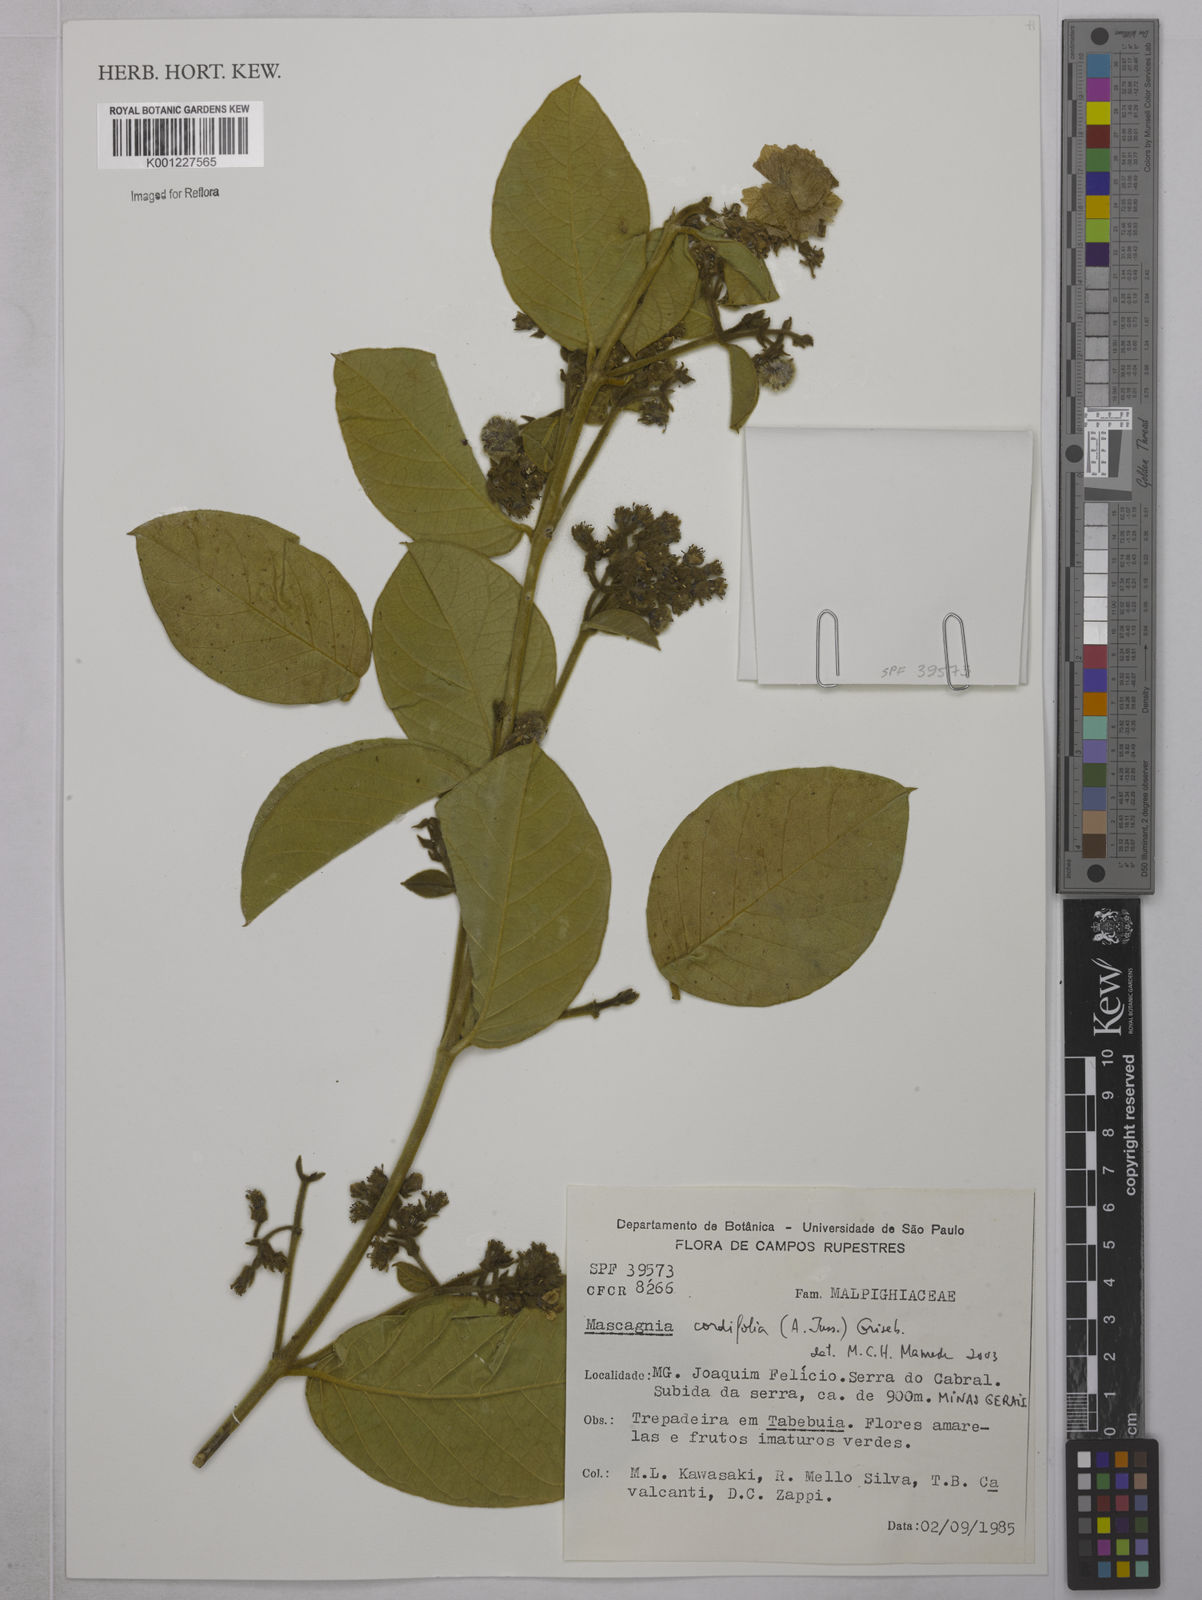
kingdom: Plantae
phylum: Tracheophyta
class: Magnoliopsida
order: Malpighiales
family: Malpighiaceae
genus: Mascagnia
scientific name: Mascagnia cordifolia
